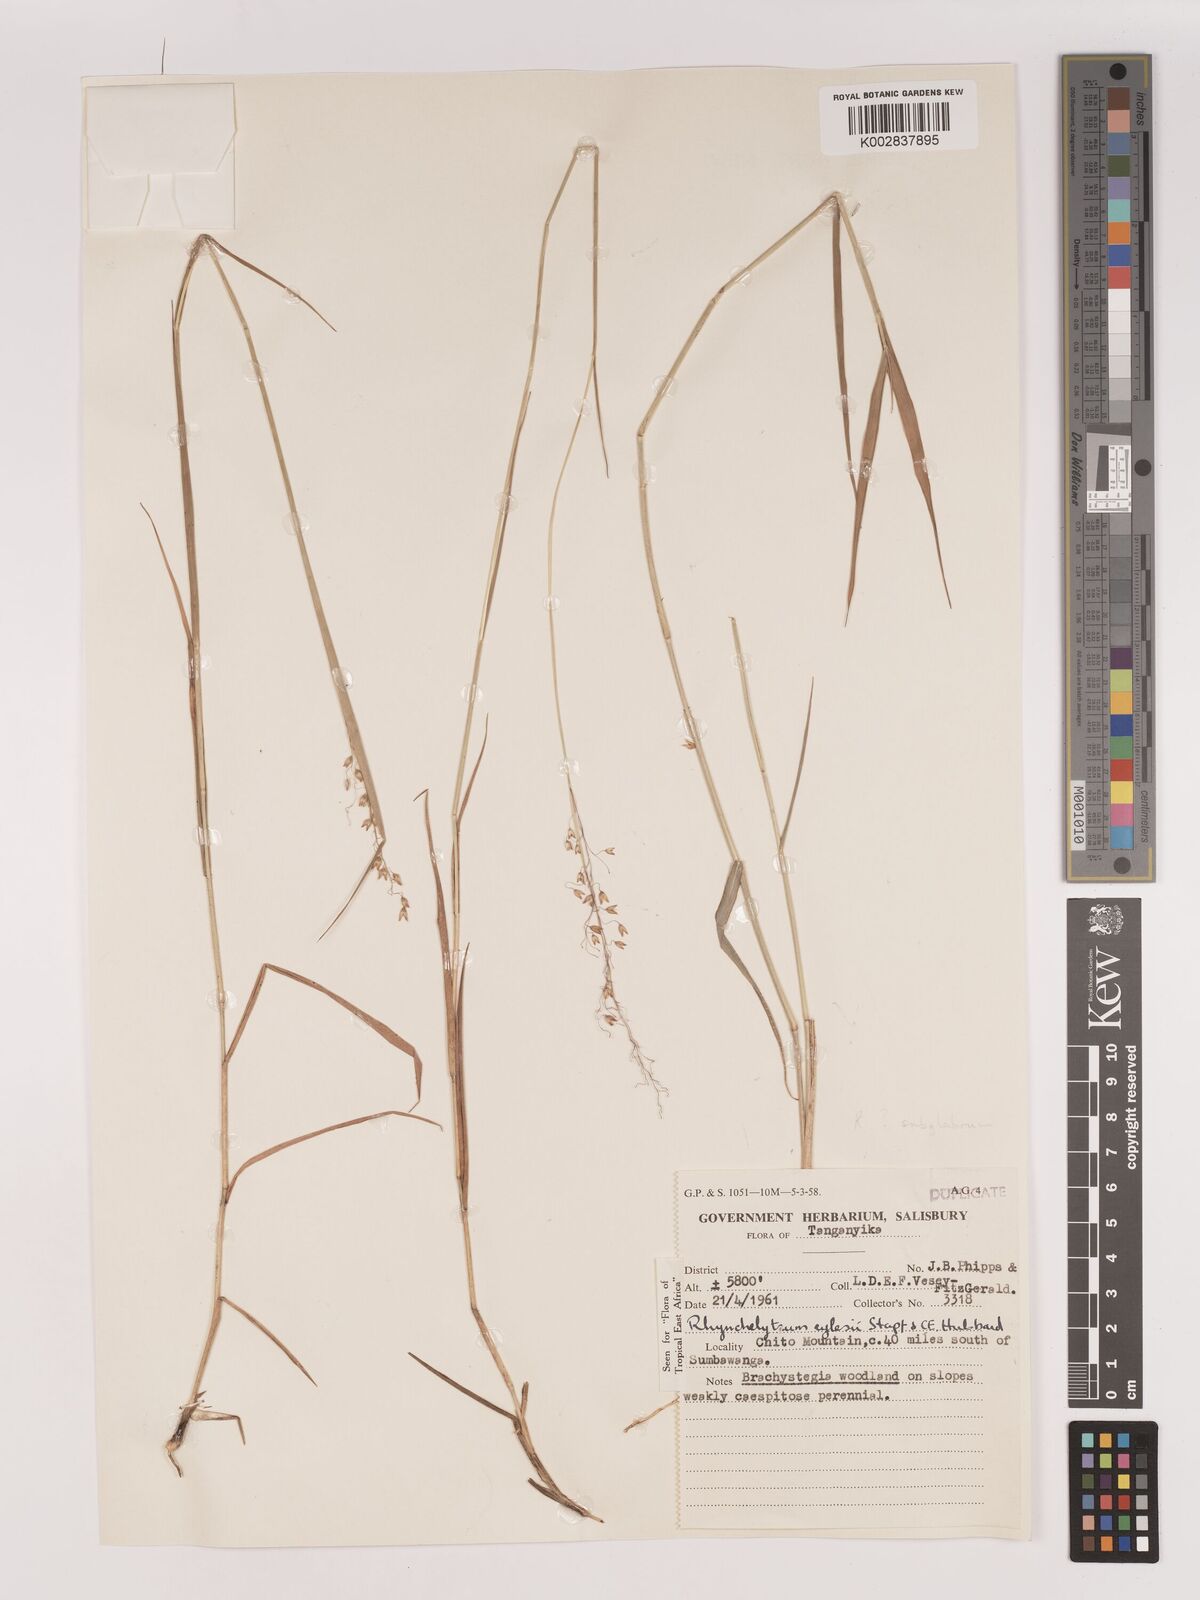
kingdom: Plantae
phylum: Tracheophyta
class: Liliopsida
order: Poales
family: Poaceae
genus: Melinis
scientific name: Melinis subglabra
